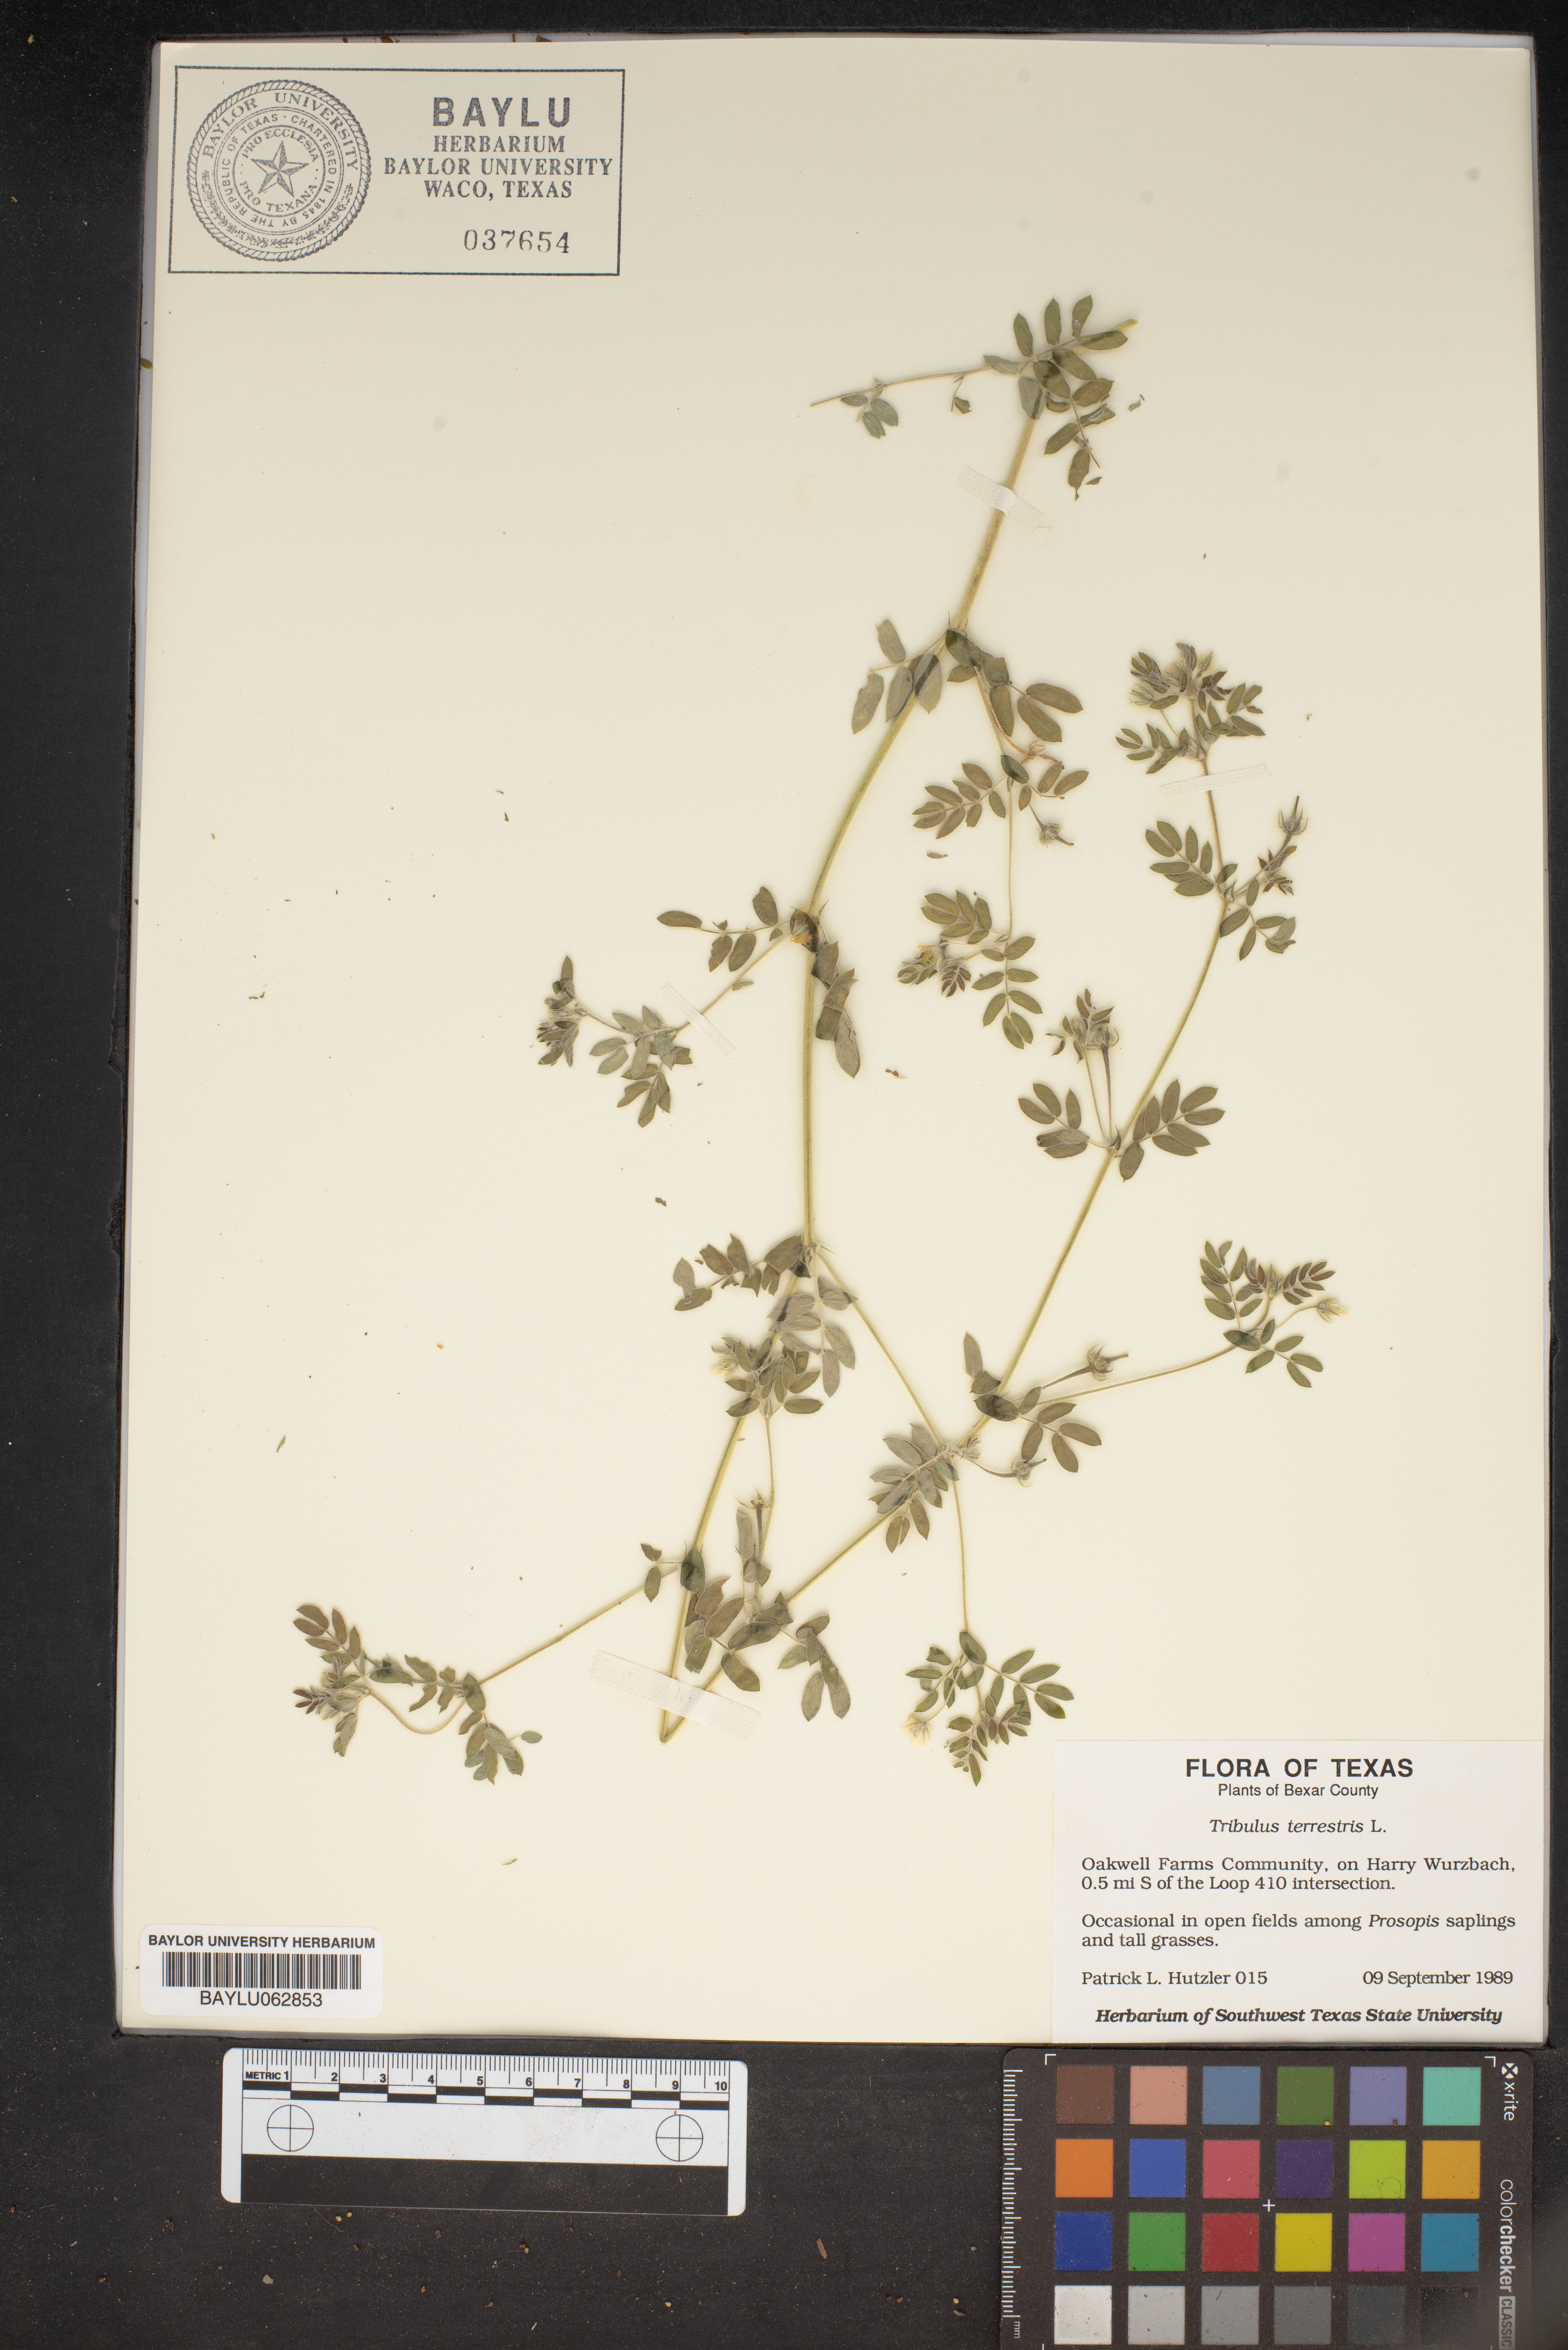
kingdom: Plantae
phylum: Tracheophyta
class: Magnoliopsida
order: Zygophyllales
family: Zygophyllaceae
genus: Tribulus
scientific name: Tribulus terrestris
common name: Puncturevine
